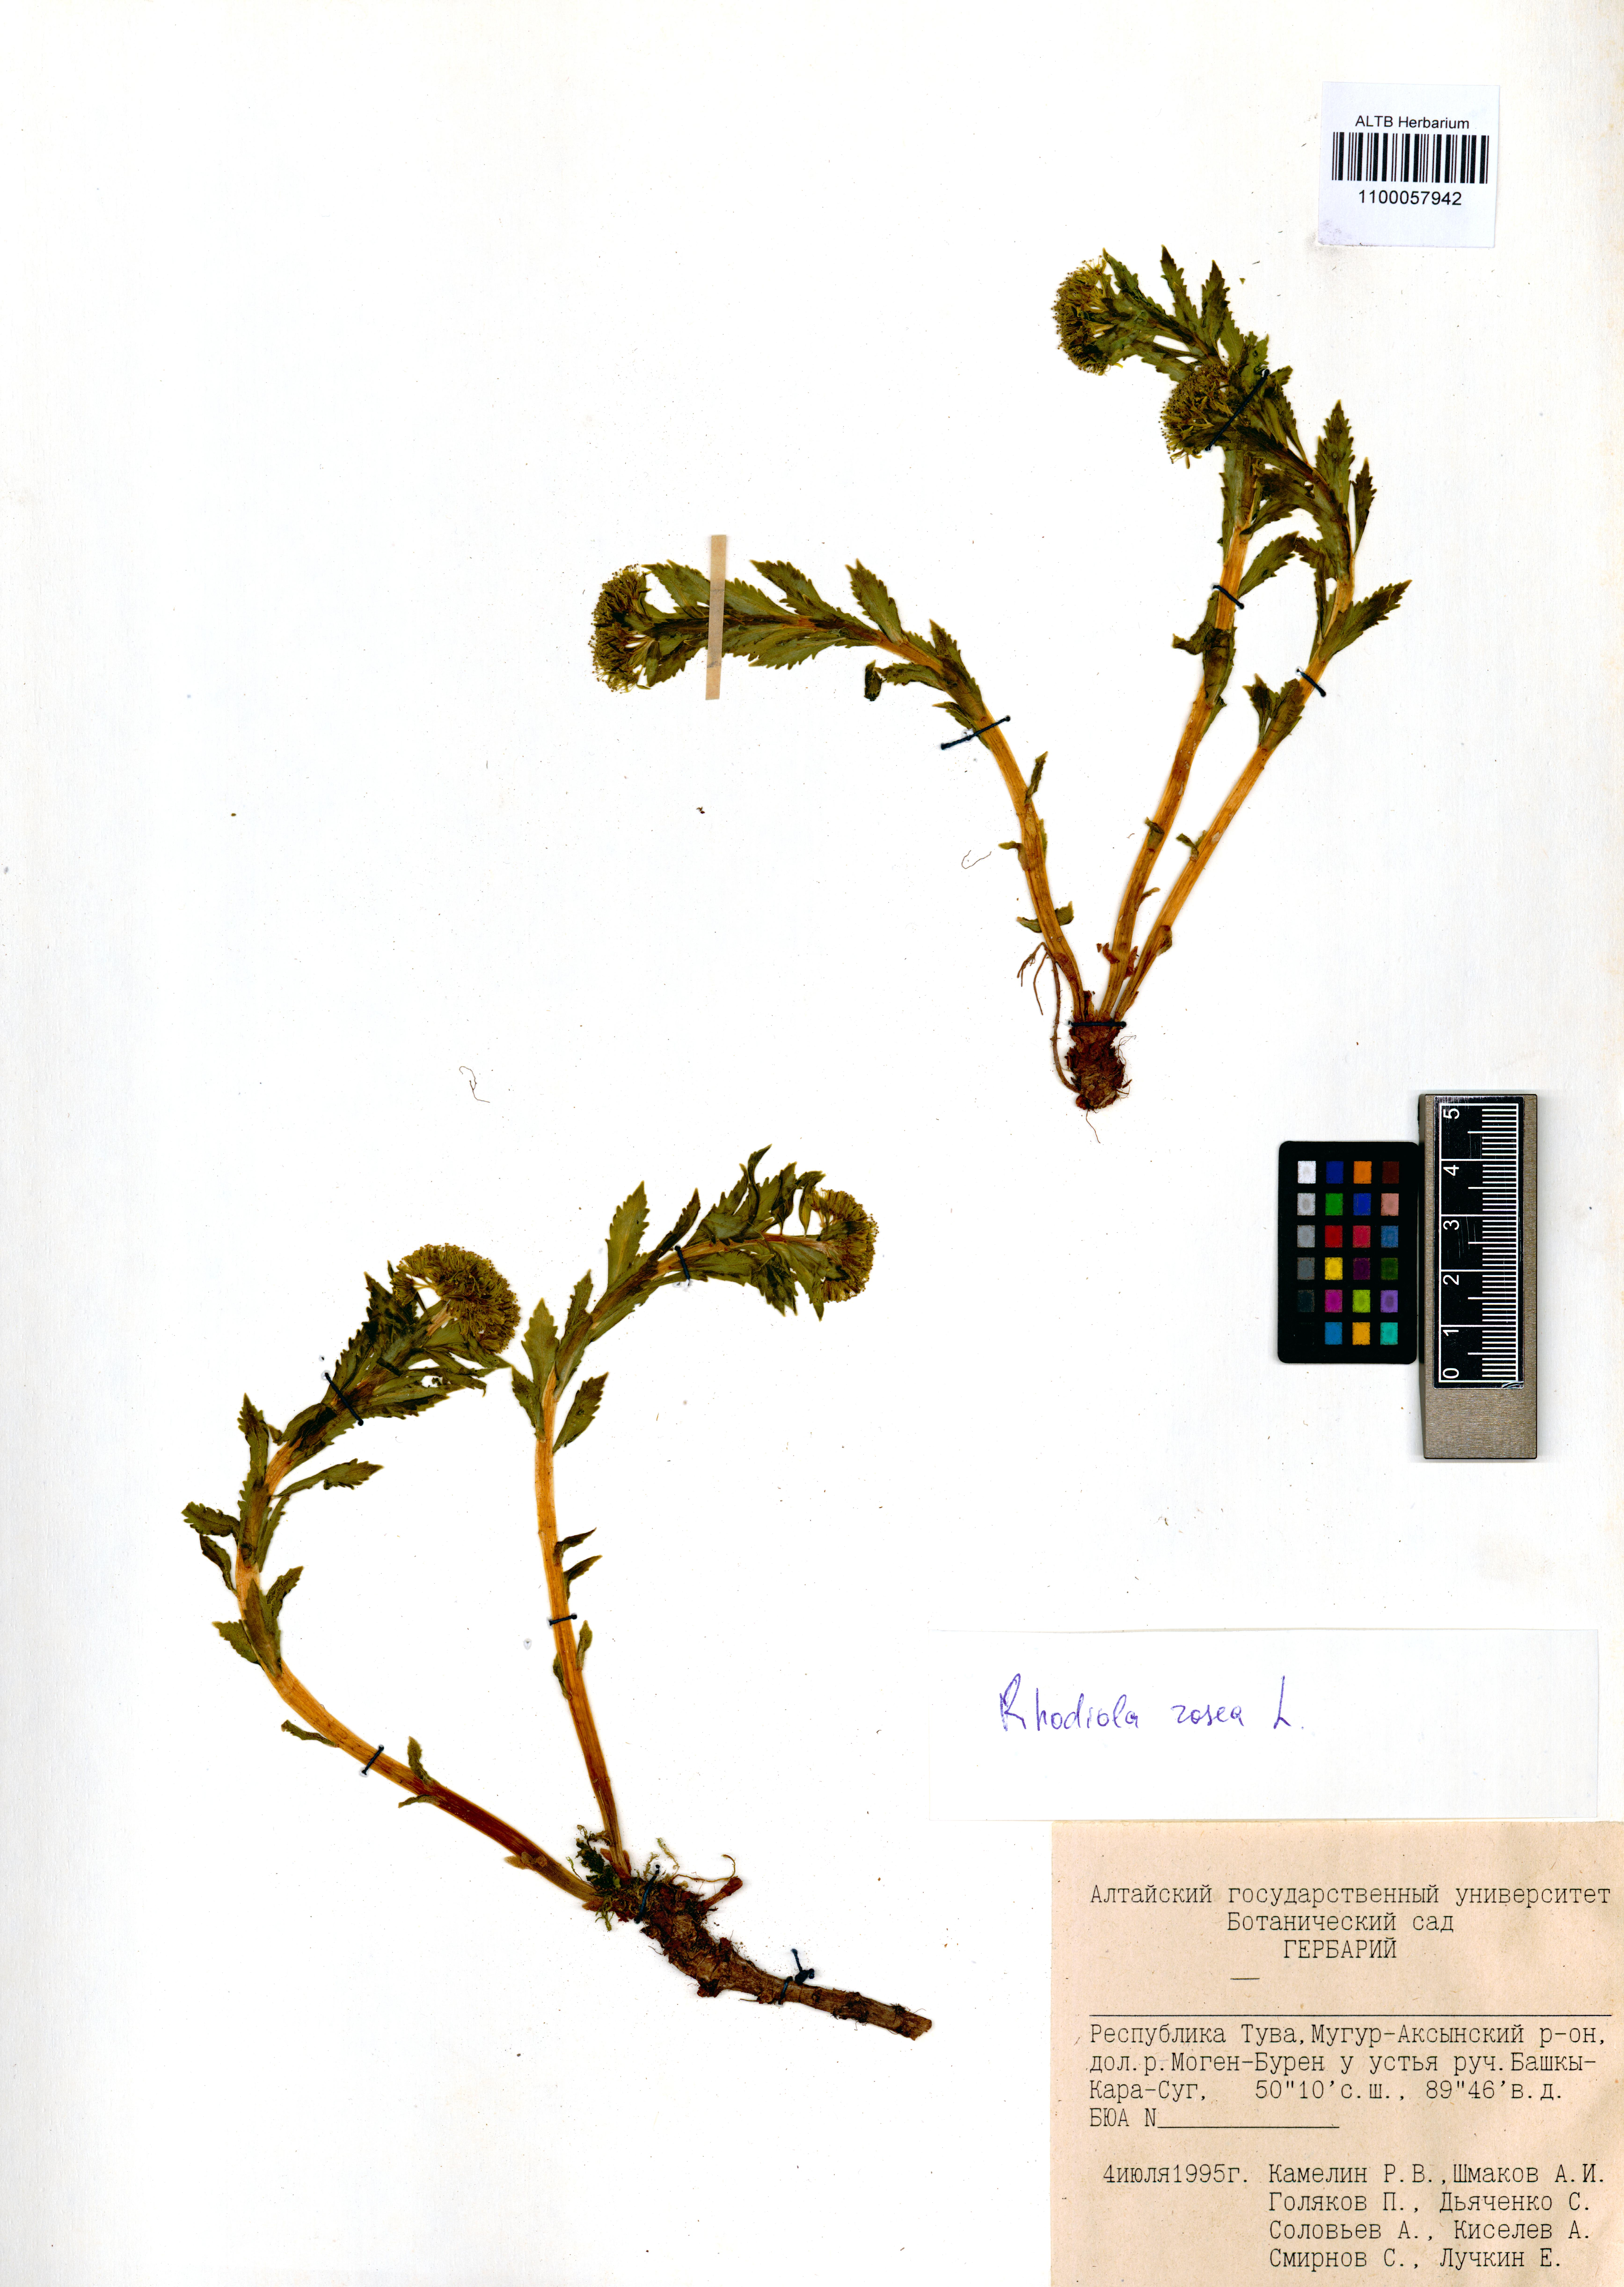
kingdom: Plantae
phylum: Tracheophyta
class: Magnoliopsida
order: Saxifragales
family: Crassulaceae
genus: Rhodiola
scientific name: Rhodiola rosea
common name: Roseroot
